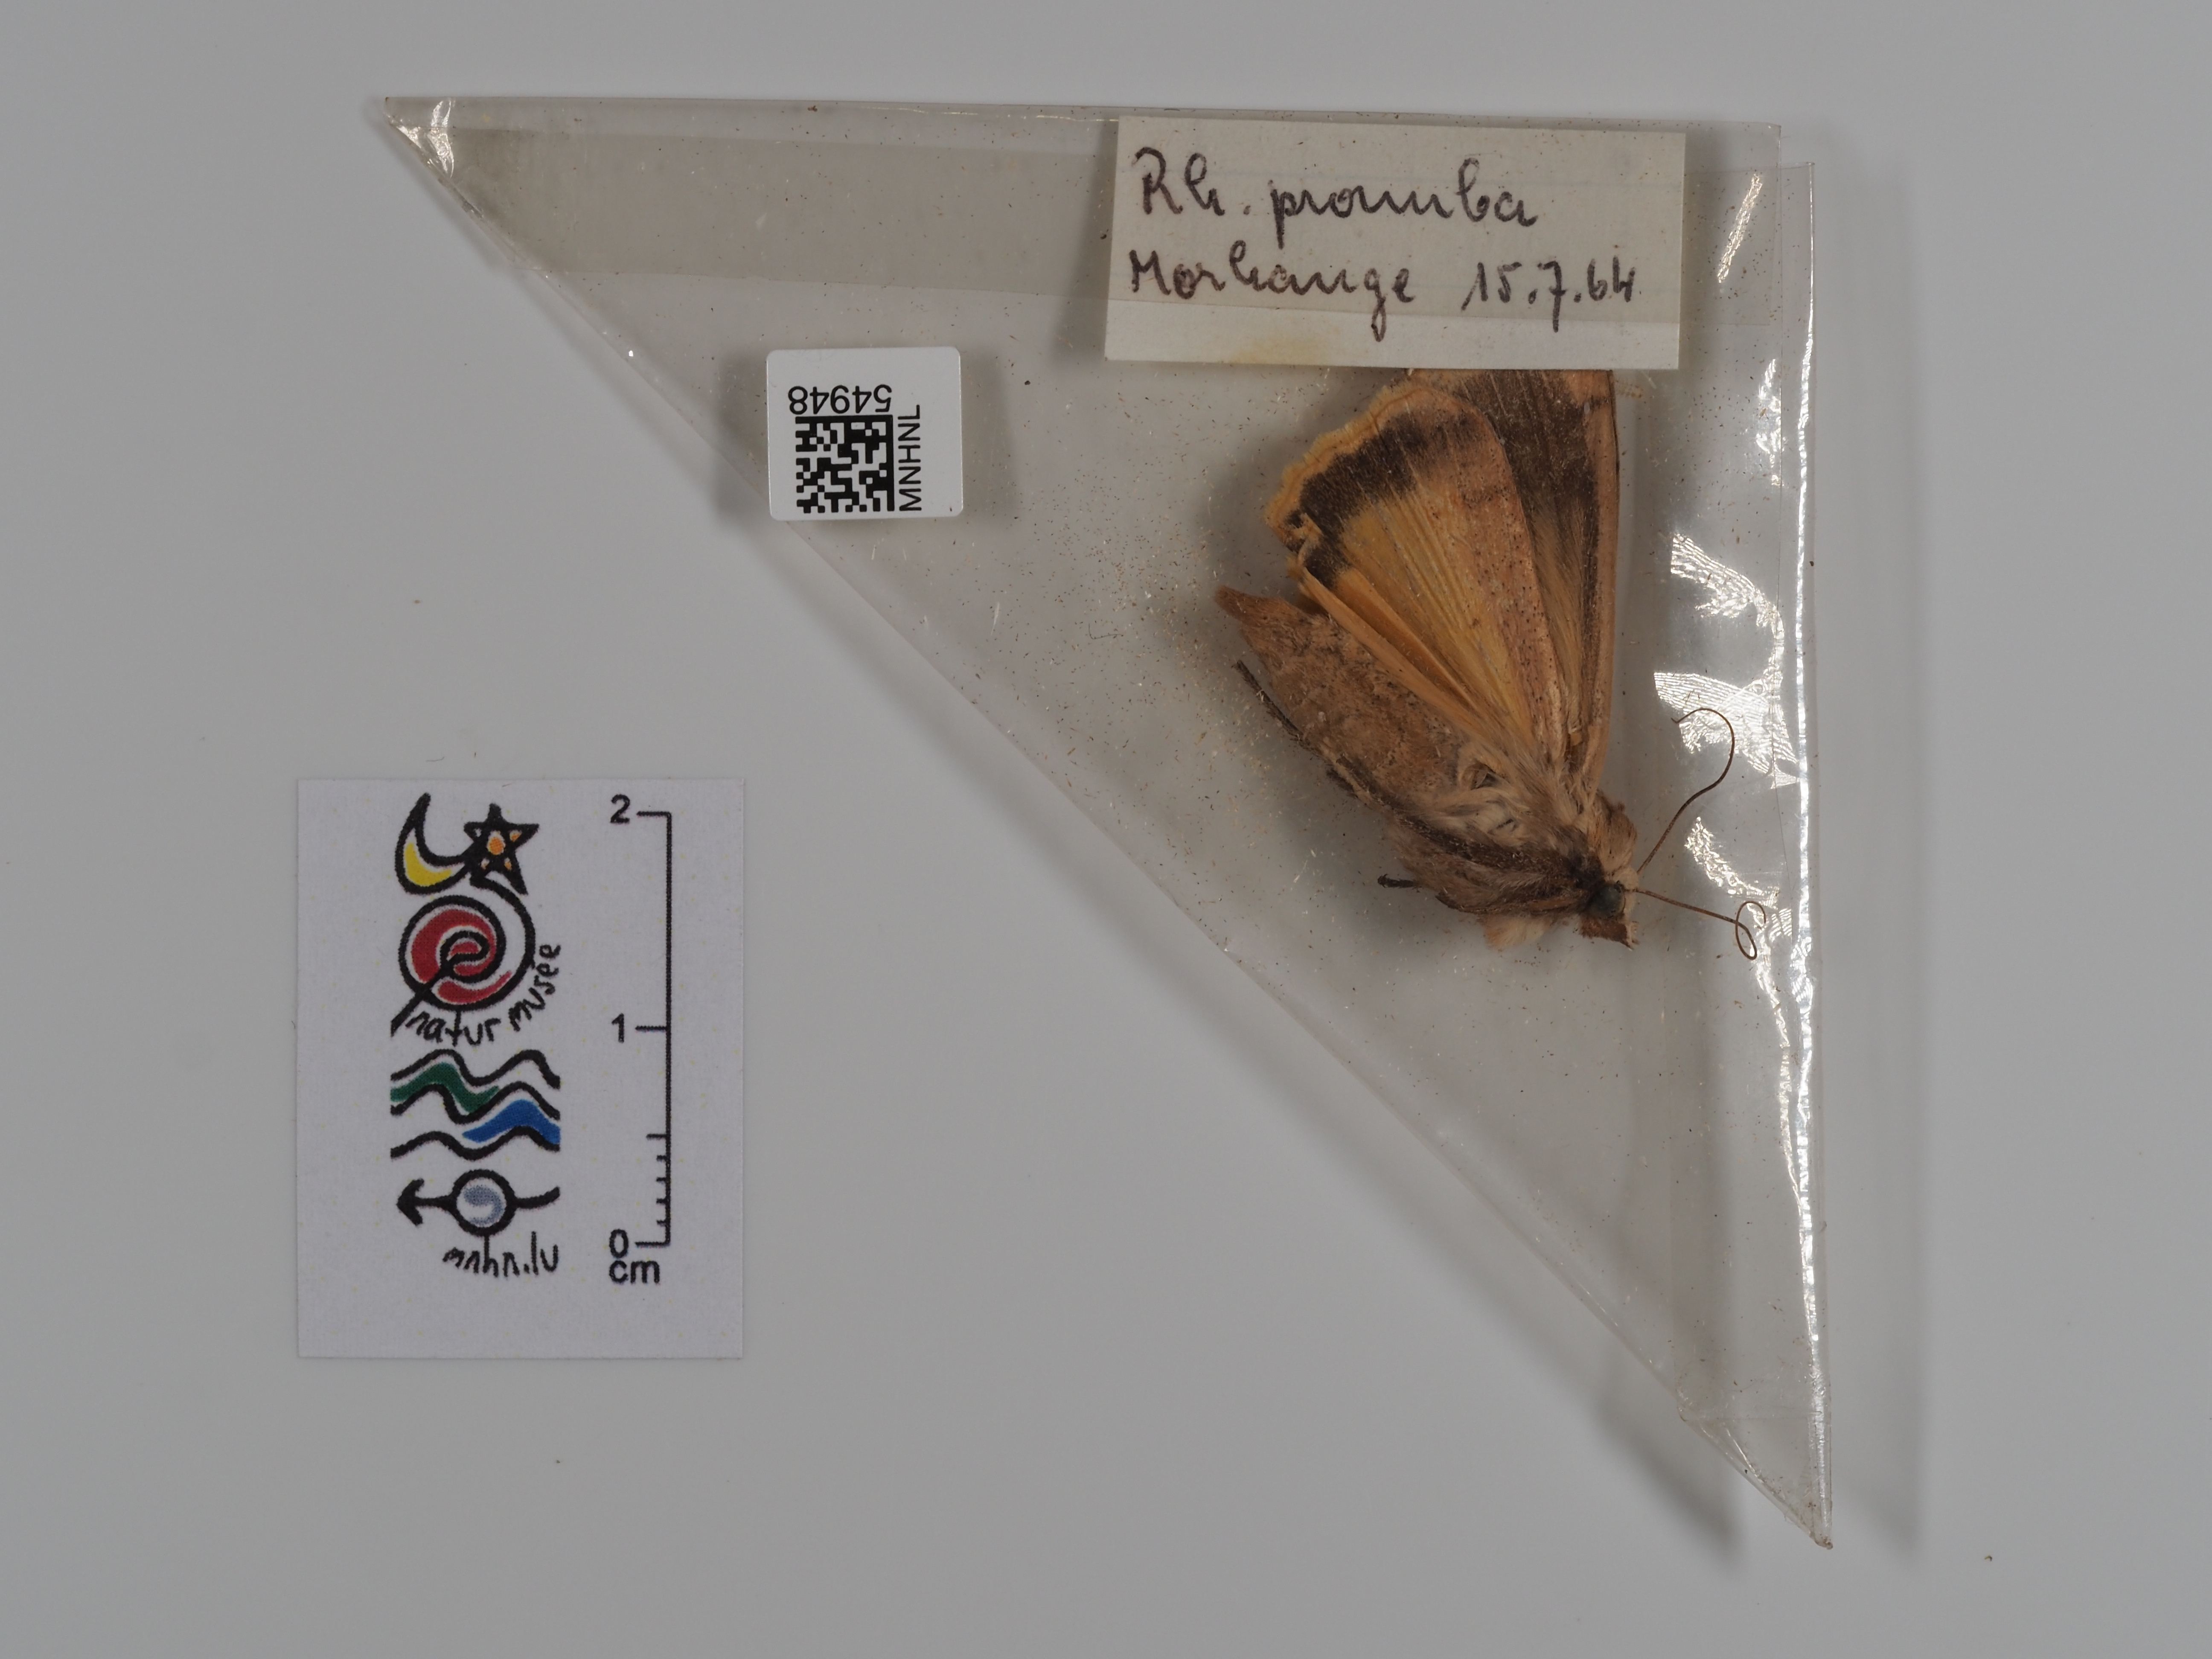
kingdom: Animalia
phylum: Arthropoda
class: Insecta
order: Lepidoptera
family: Noctuidae
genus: Noctua
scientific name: Noctua pronuba
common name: Large yellow underwing
